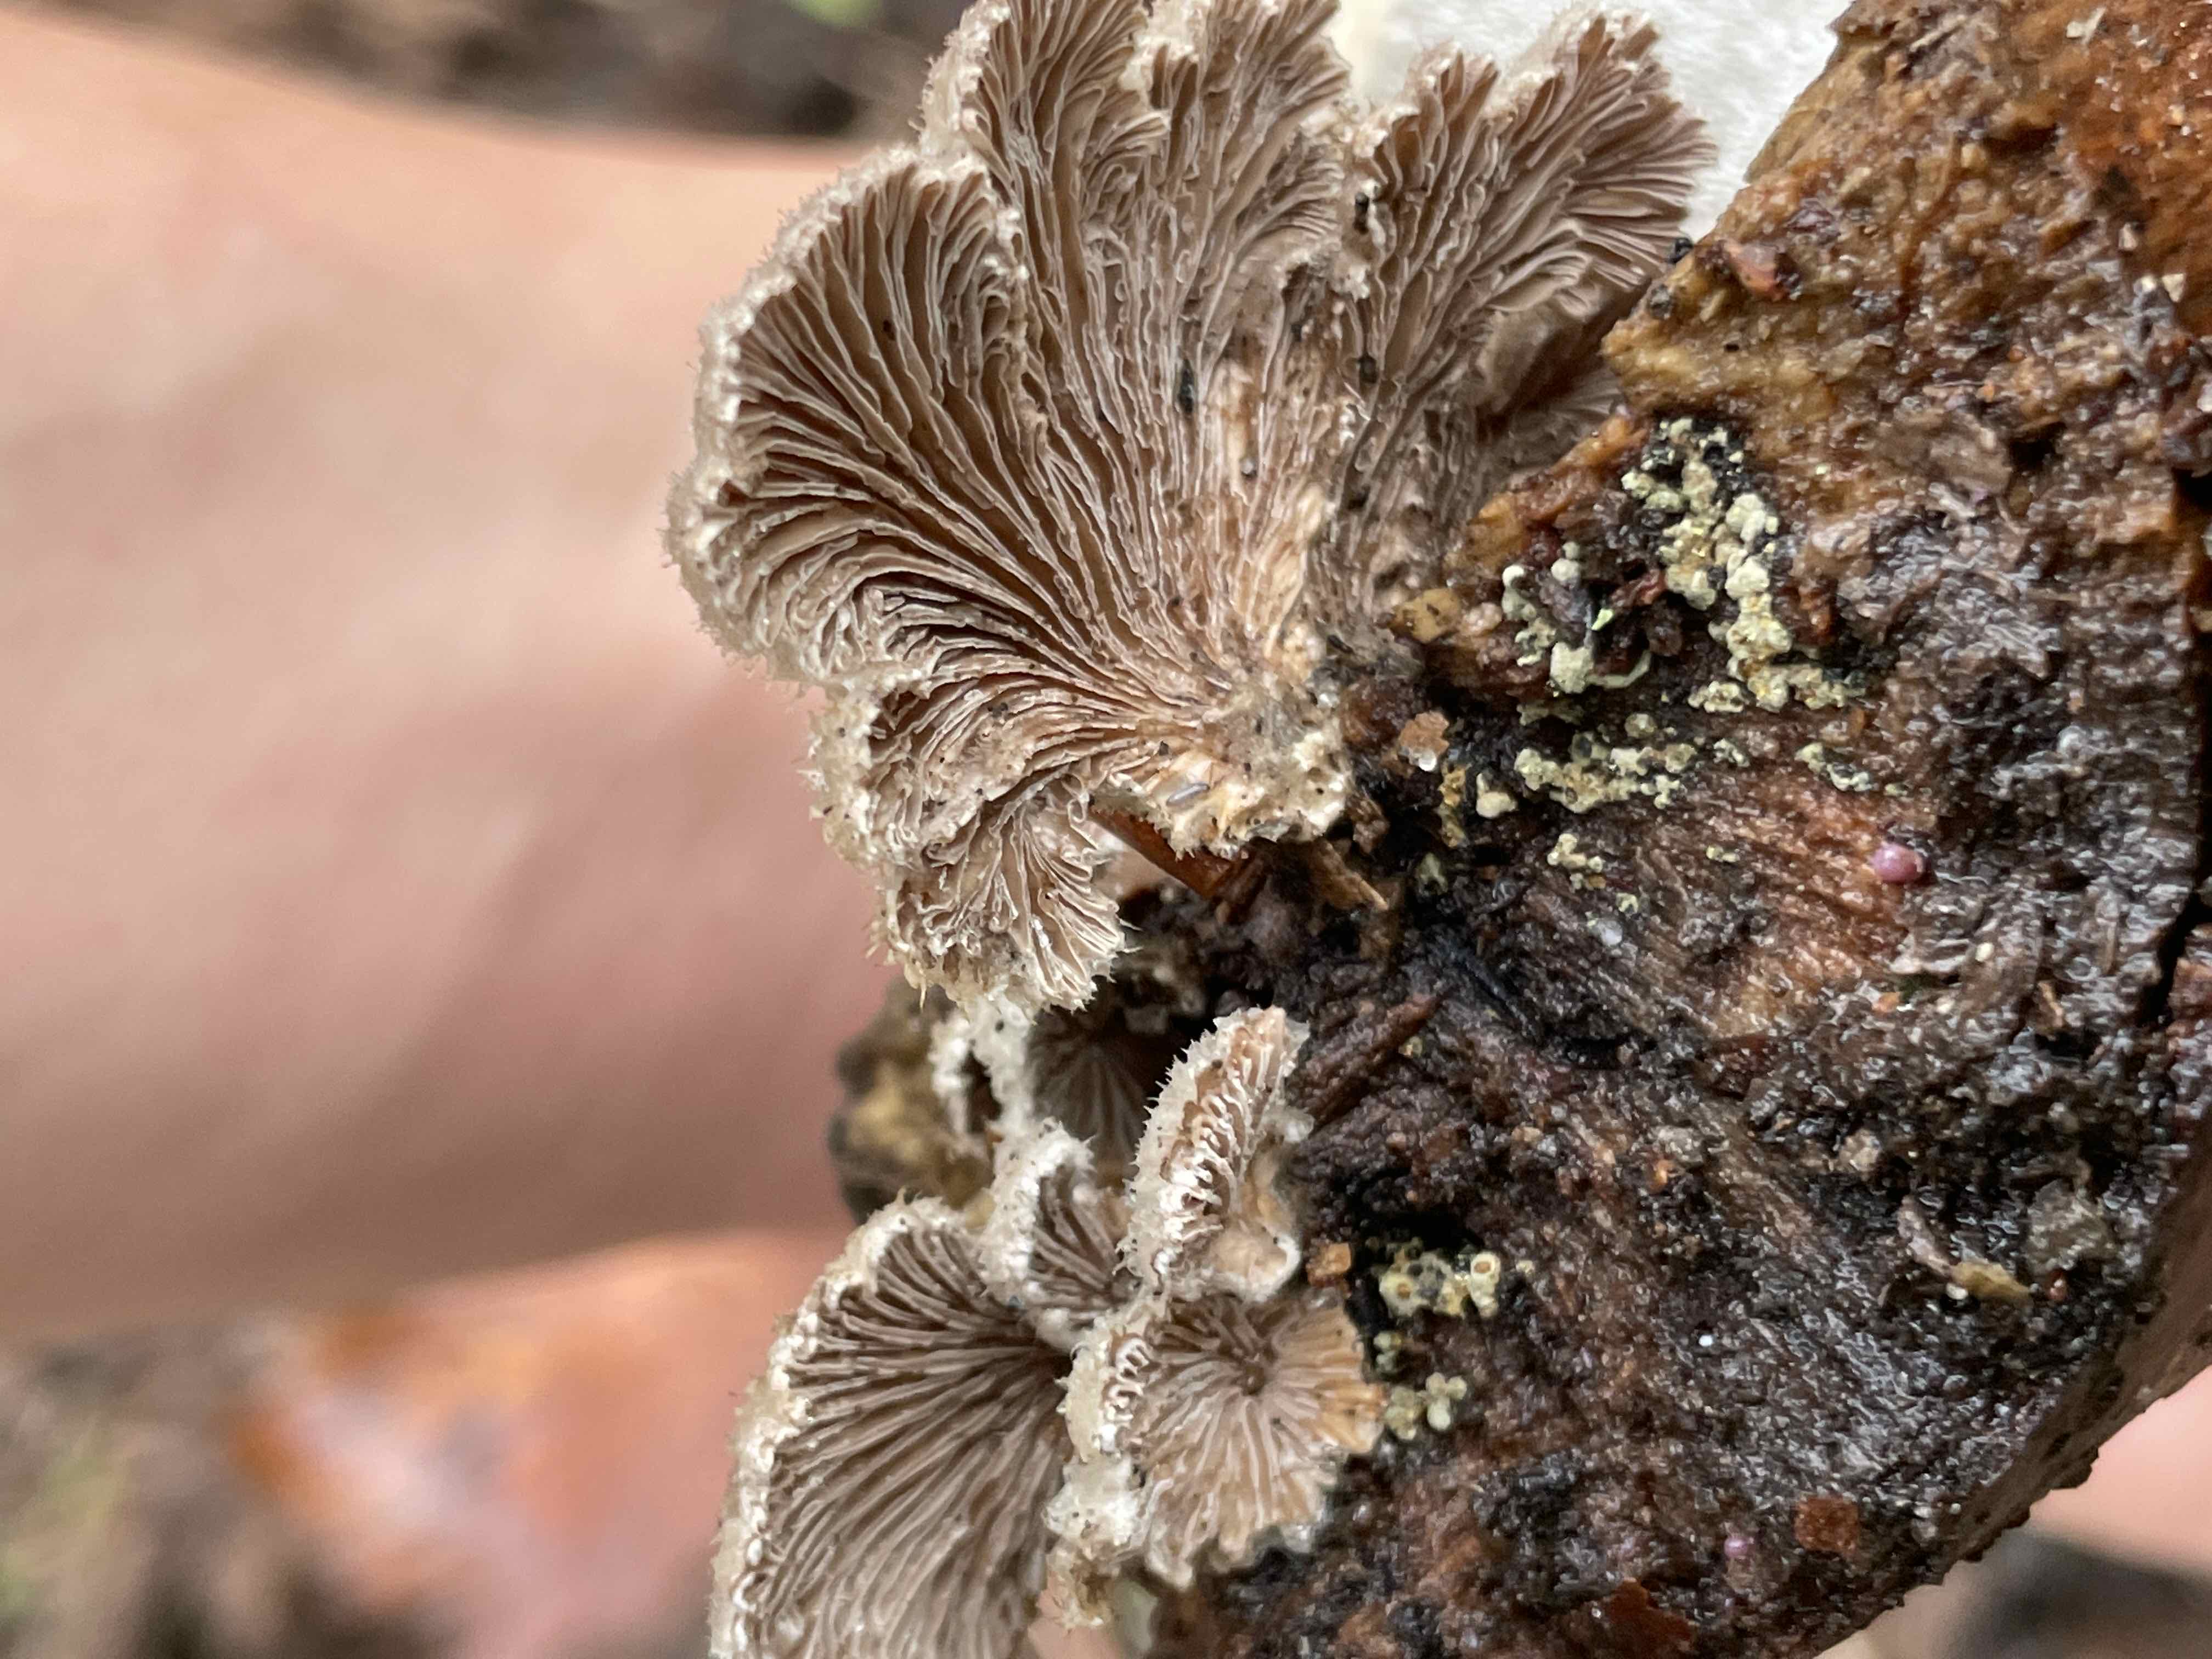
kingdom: Fungi
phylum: Basidiomycota
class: Agaricomycetes
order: Agaricales
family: Schizophyllaceae
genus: Schizophyllum
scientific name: Schizophyllum commune
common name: kløvblad
